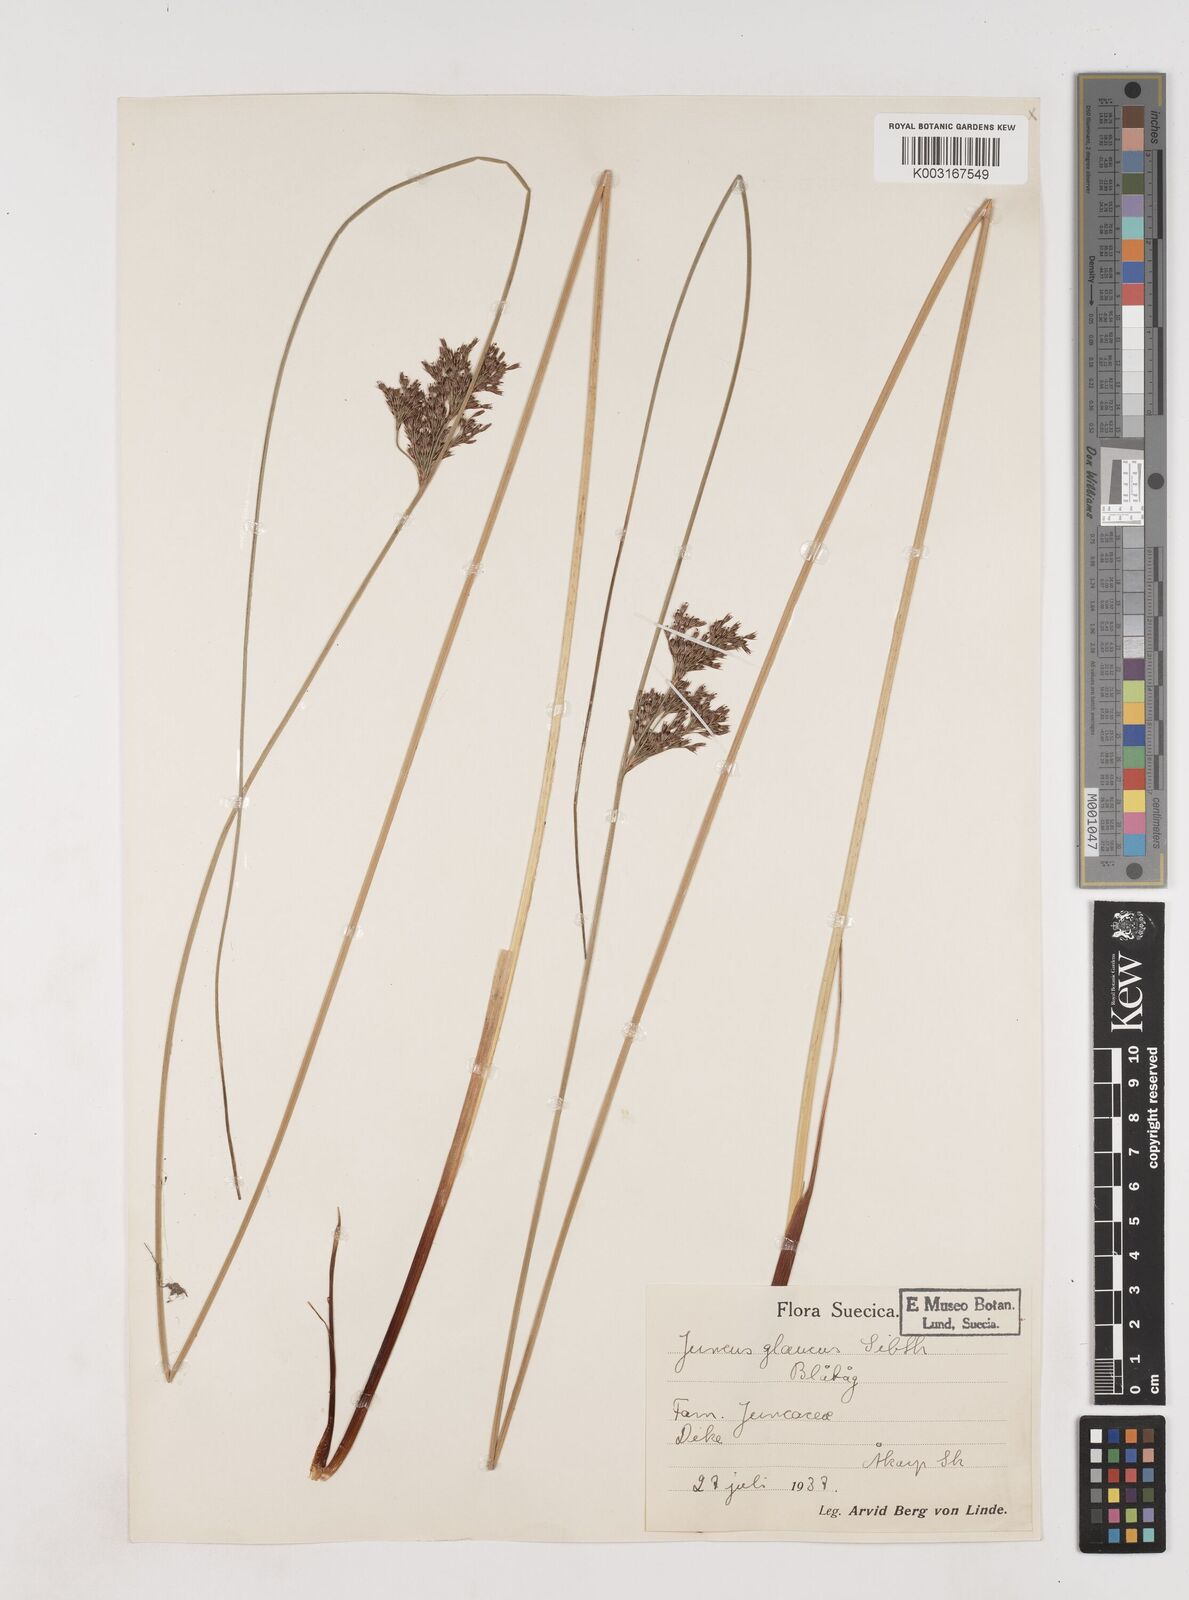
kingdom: Plantae
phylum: Tracheophyta
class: Liliopsida
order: Poales
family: Juncaceae
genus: Juncus
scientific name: Juncus inflexus
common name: Hard rush
